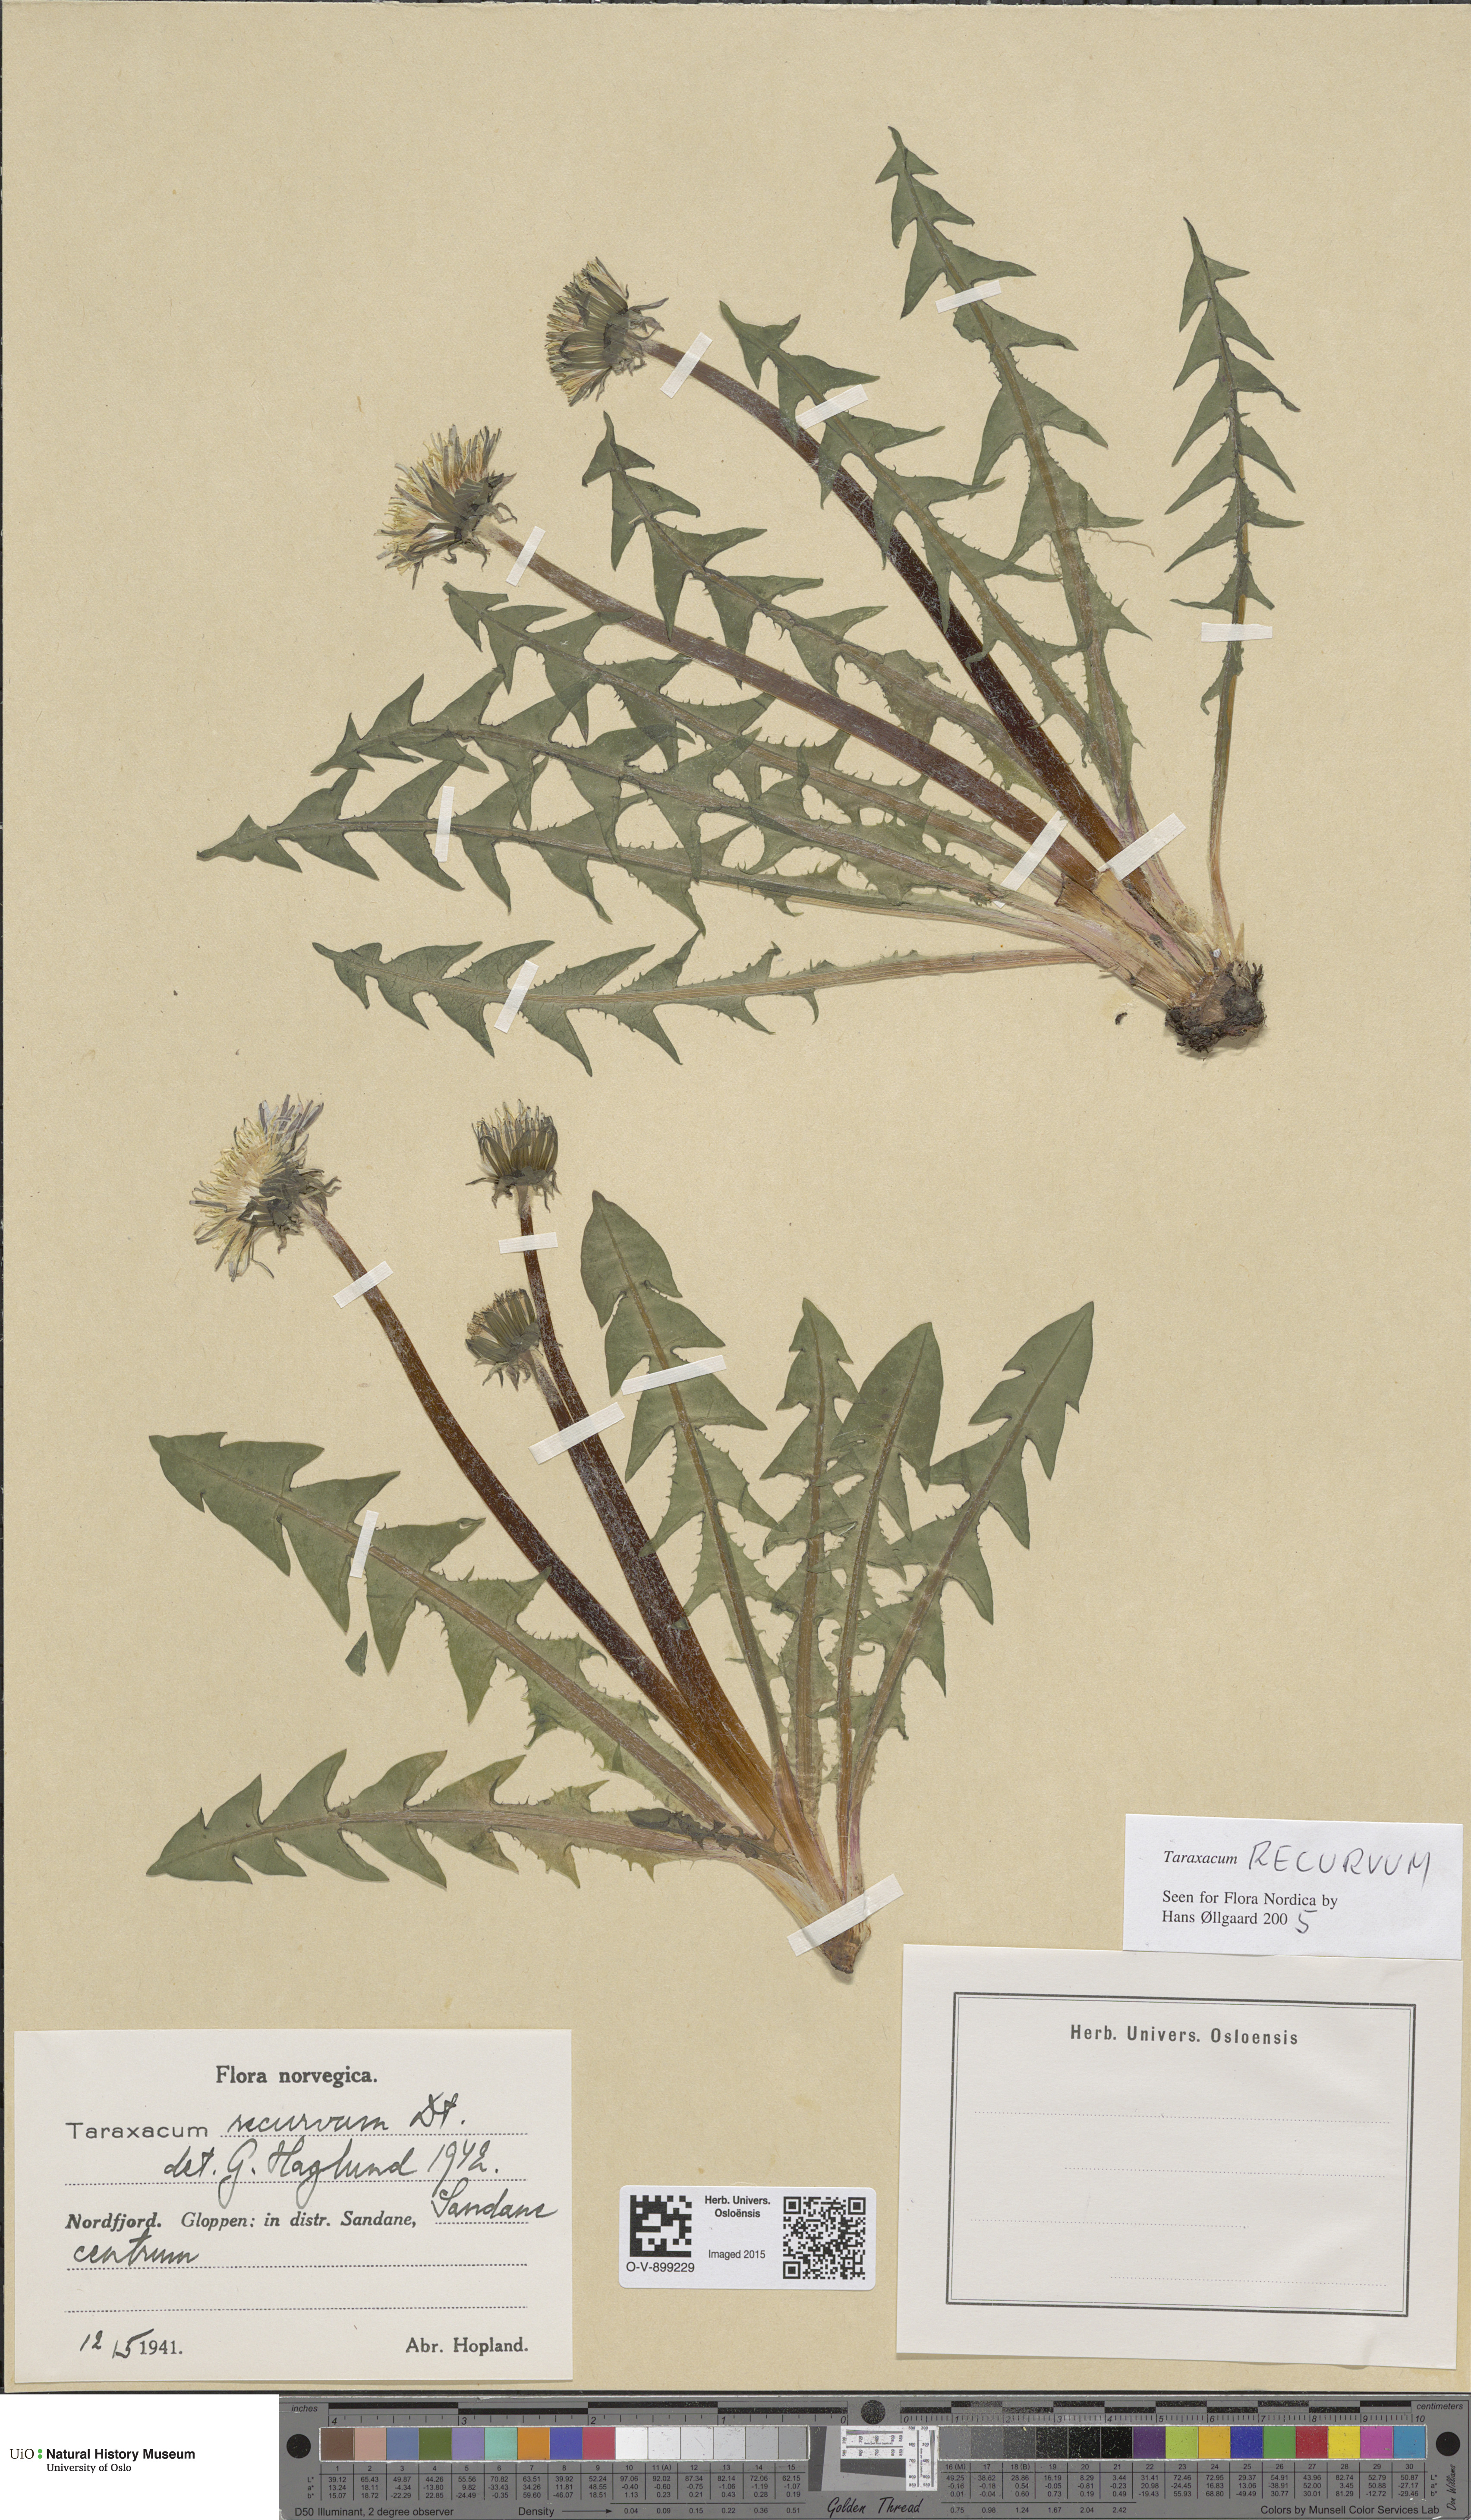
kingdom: Plantae
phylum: Tracheophyta
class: Magnoliopsida
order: Asterales
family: Asteraceae
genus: Taraxacum
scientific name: Taraxacum recurvum
